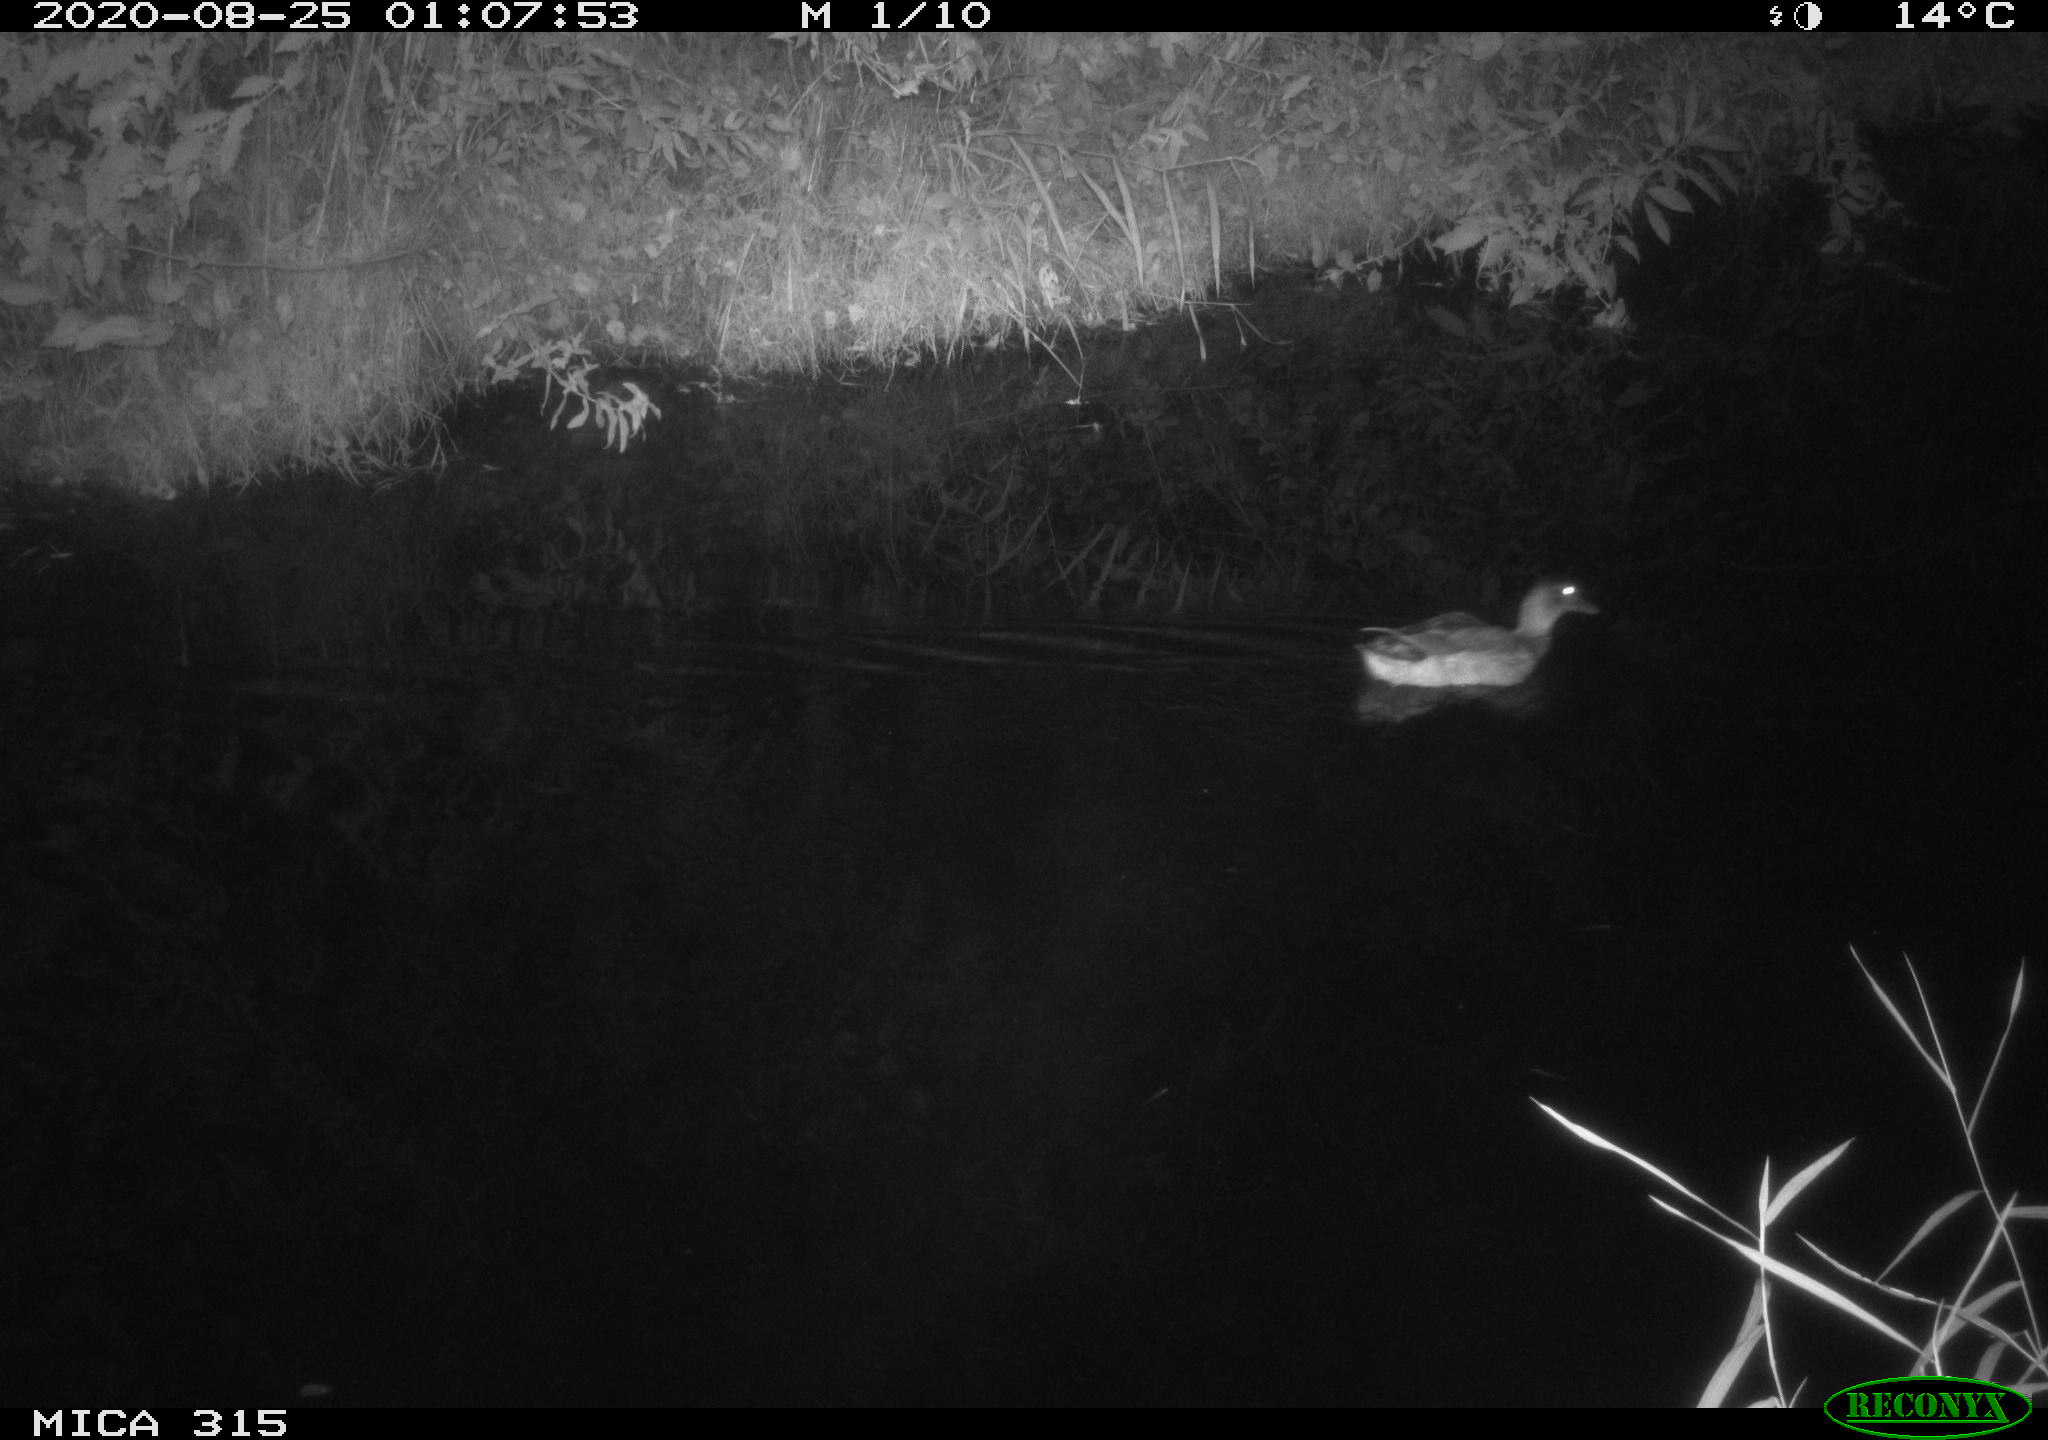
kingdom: Animalia
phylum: Chordata
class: Aves
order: Anseriformes
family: Anatidae
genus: Anas
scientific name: Anas platyrhynchos
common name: Mallard
